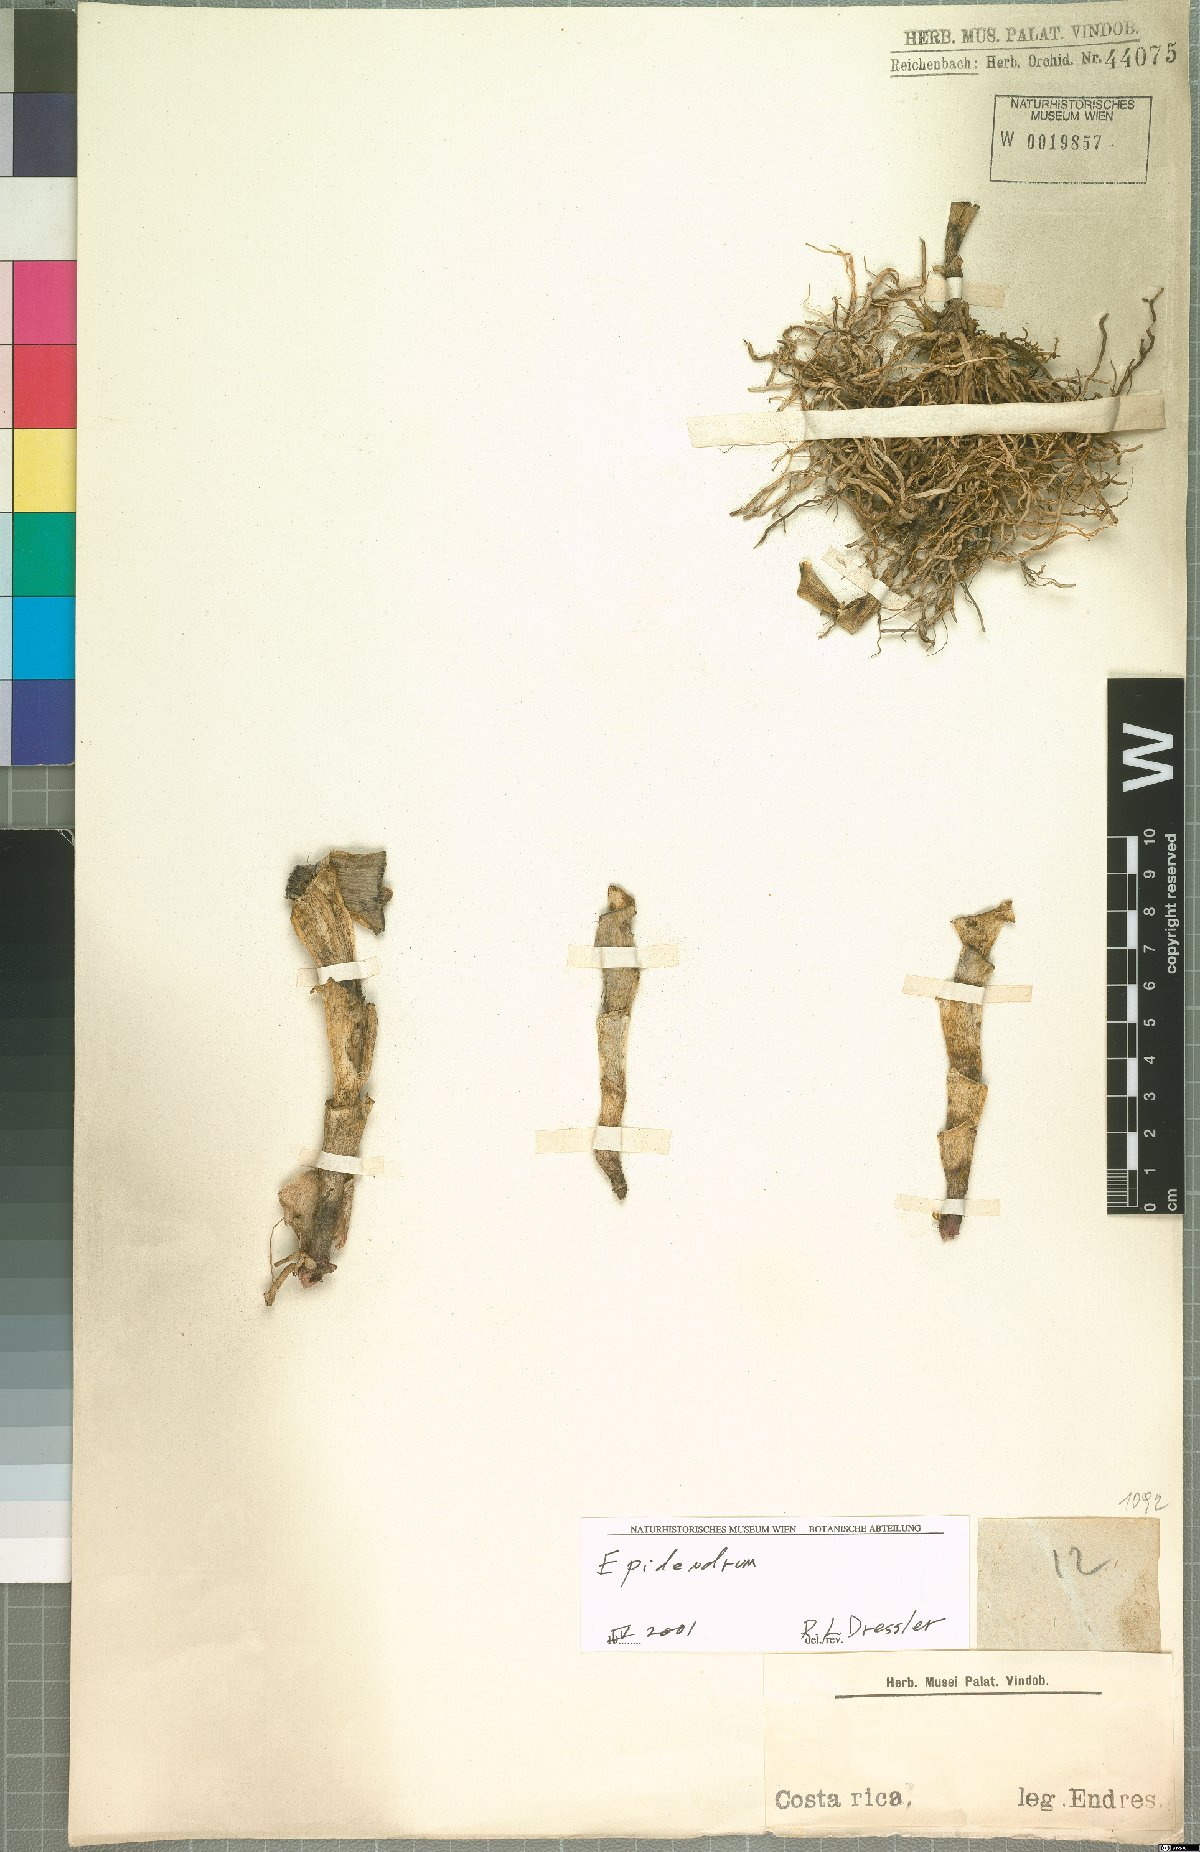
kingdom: Plantae
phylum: Tracheophyta
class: Liliopsida
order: Asparagales
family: Orchidaceae
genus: Epidendrum
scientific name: Epidendrum
